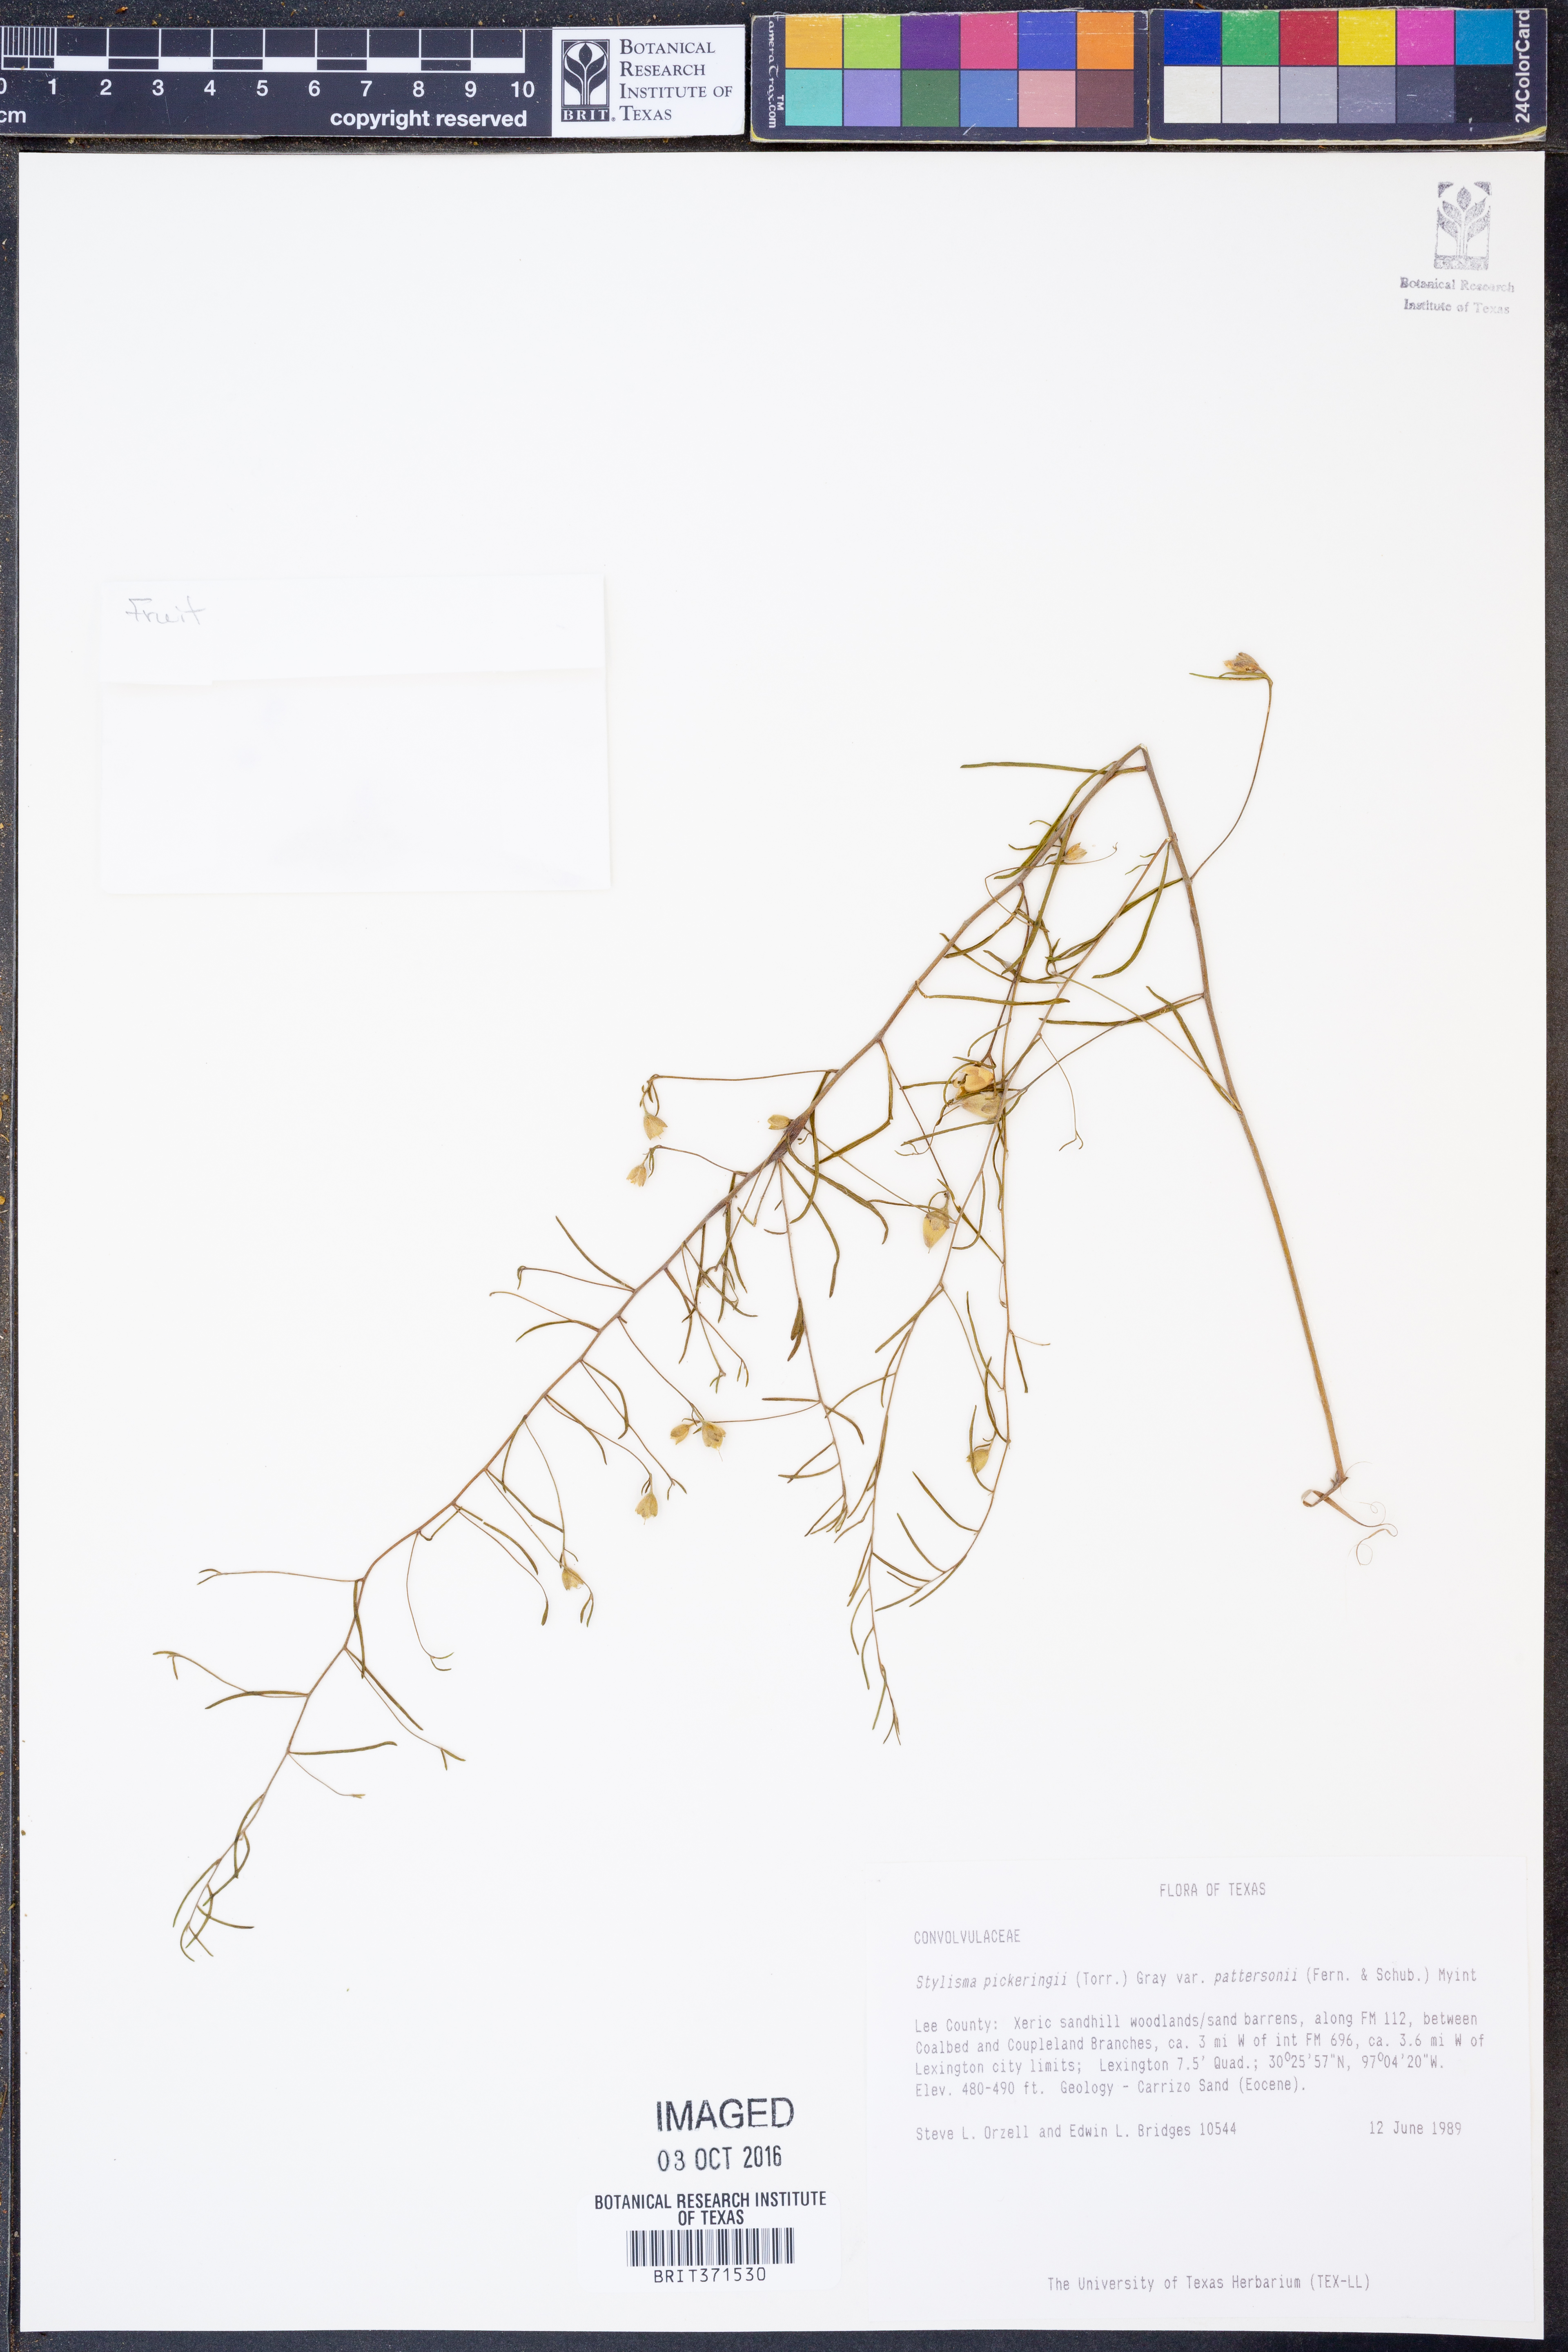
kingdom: Plantae
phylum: Tracheophyta
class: Magnoliopsida
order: Solanales
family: Convolvulaceae
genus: Stylisma
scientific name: Stylisma pickeringii
